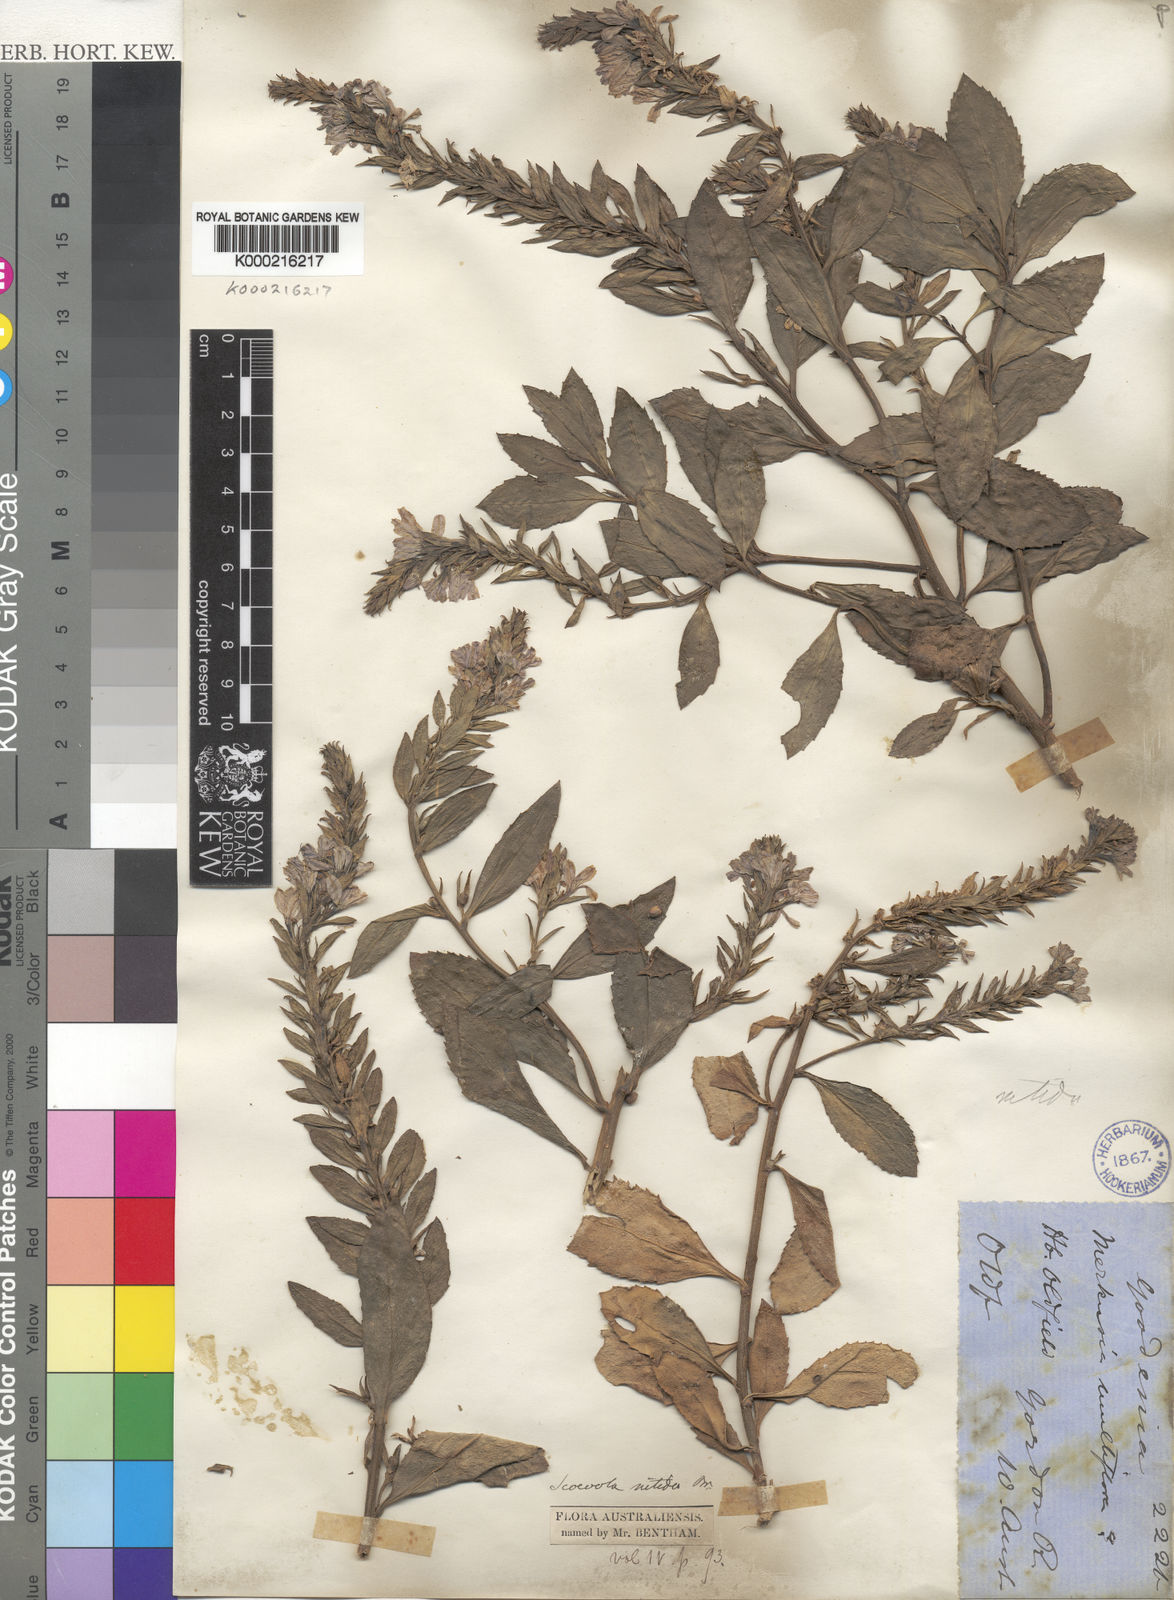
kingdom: Plantae
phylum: Tracheophyta
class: Magnoliopsida
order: Asterales
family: Goodeniaceae
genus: Scaevola
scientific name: Scaevola nitida
